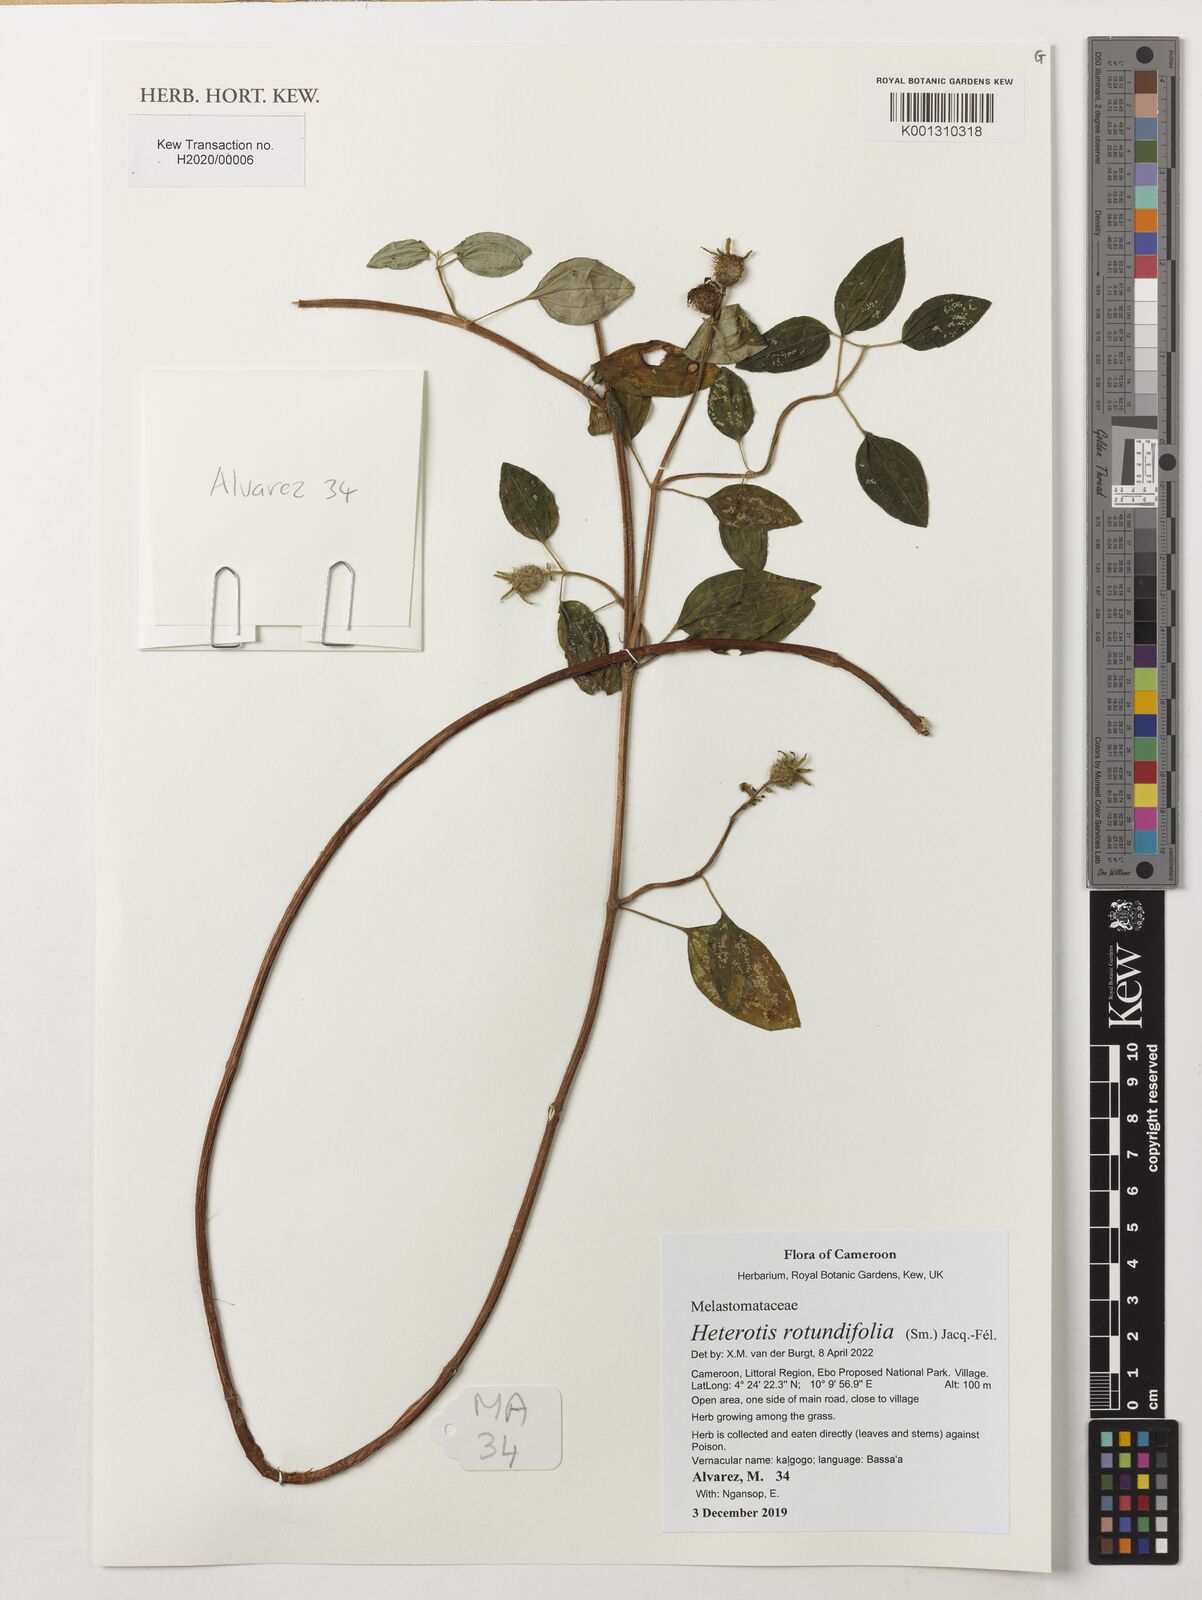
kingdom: Plantae
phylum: Tracheophyta
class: Magnoliopsida
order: Myrtales
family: Melastomataceae
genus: Heterotis
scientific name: Heterotis rotundifolia
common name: Pinklady
